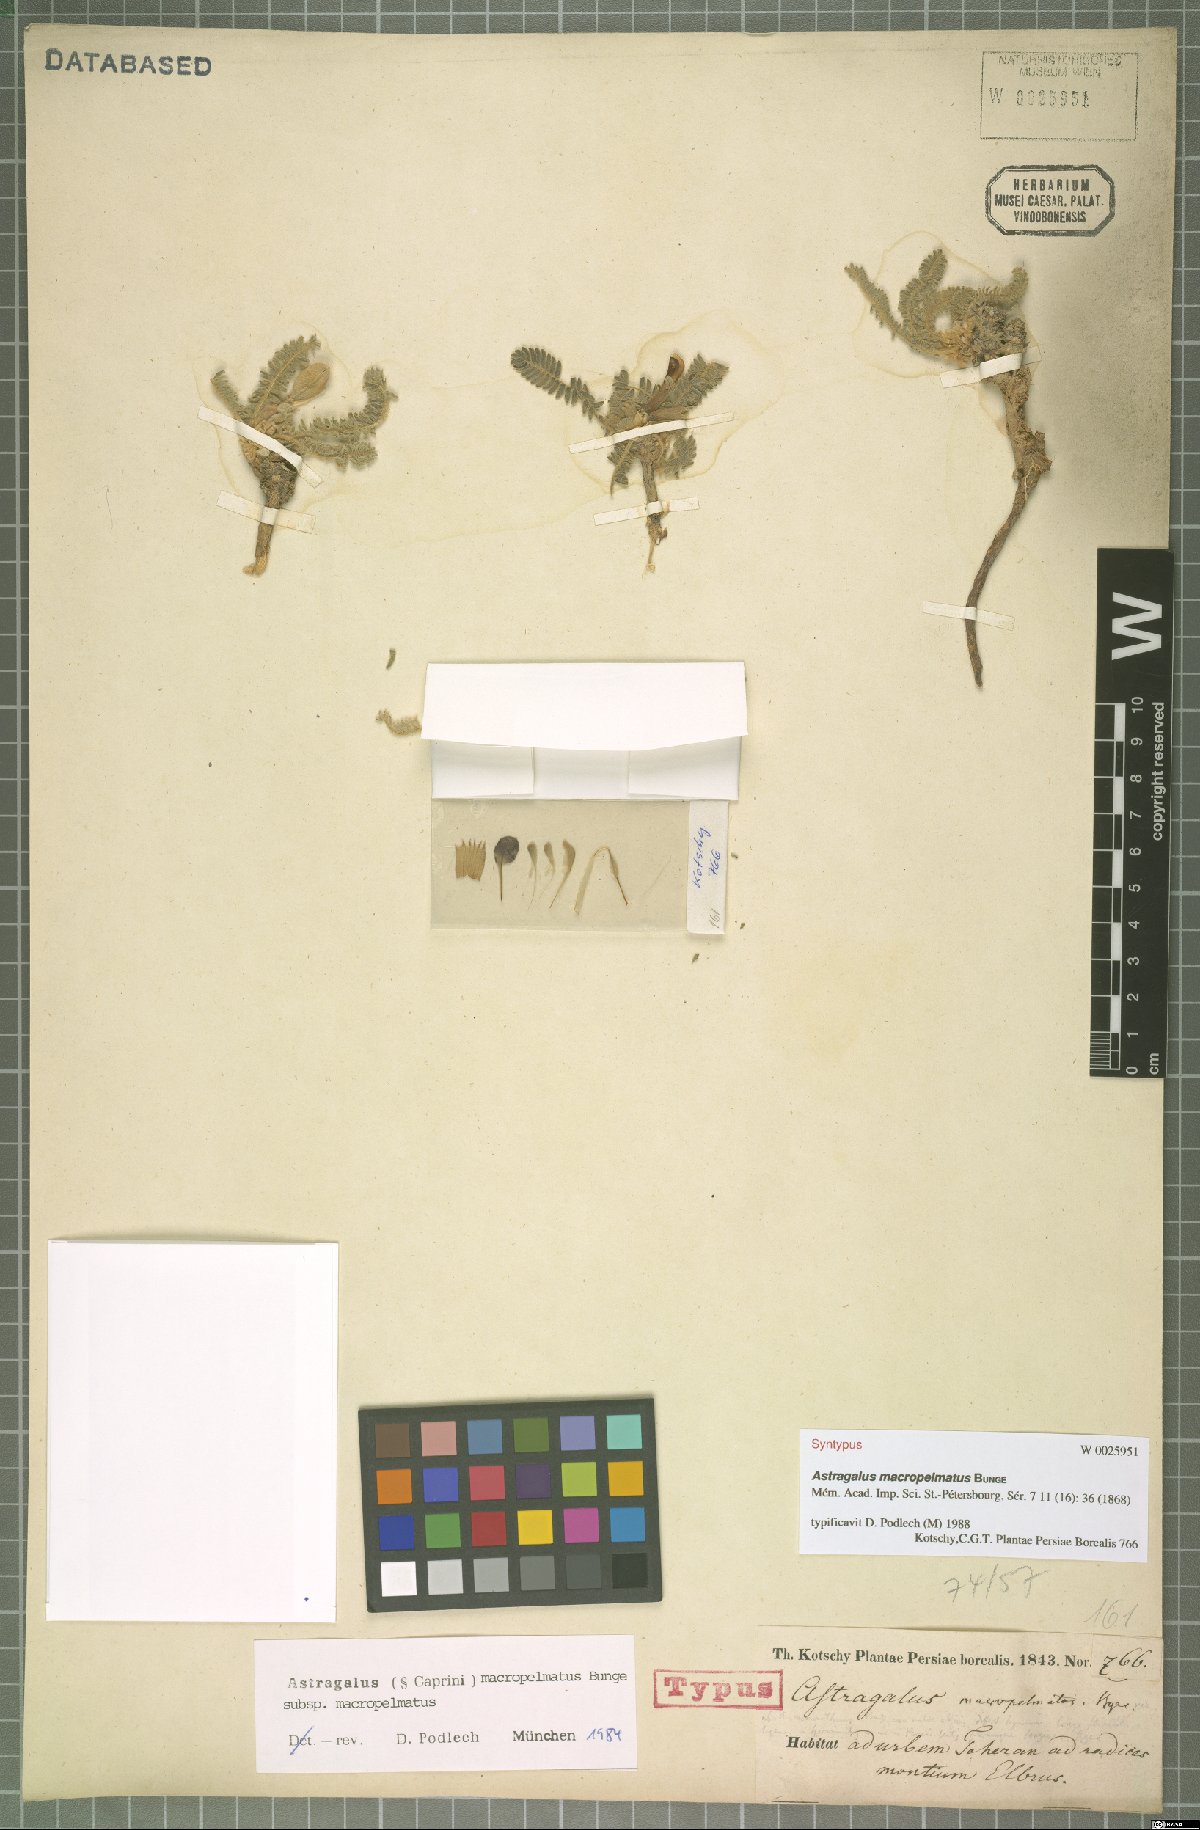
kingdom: Plantae
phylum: Tracheophyta
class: Magnoliopsida
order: Fabales
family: Fabaceae
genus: Astragalus
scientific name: Astragalus macropelmatus
